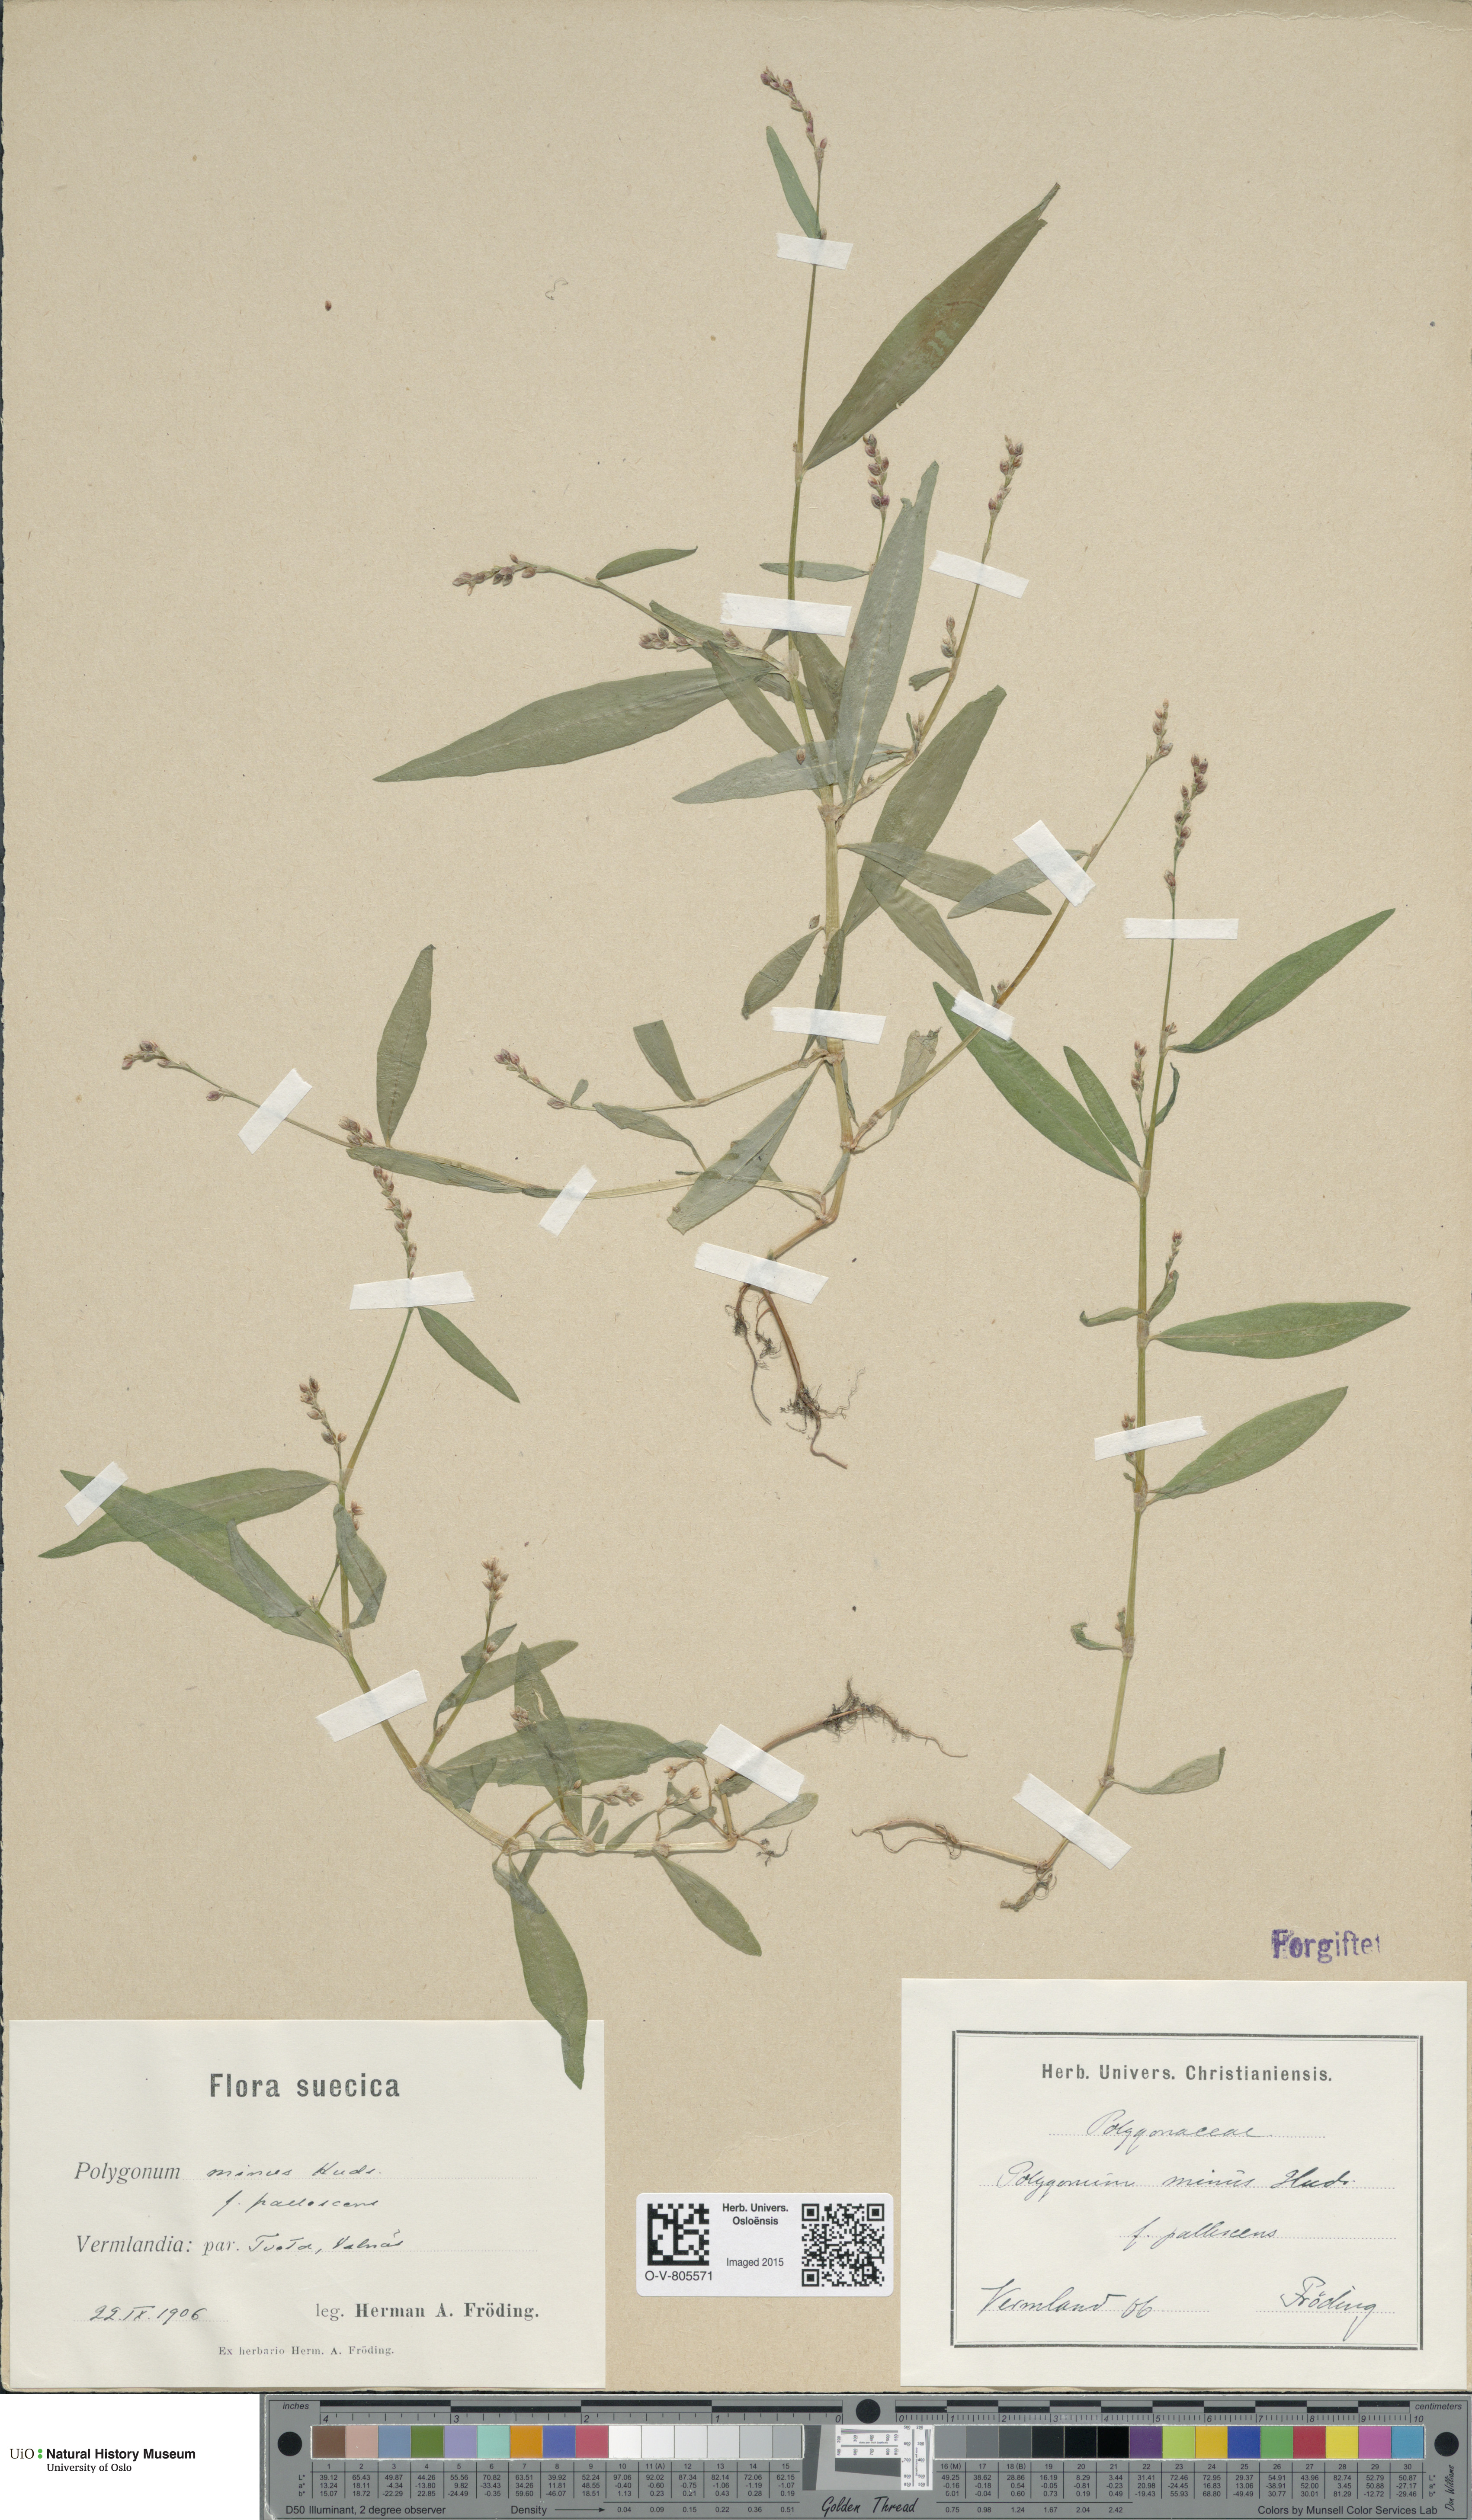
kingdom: Plantae
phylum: Tracheophyta
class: Magnoliopsida
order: Caryophyllales
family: Polygonaceae
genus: Persicaria
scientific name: Persicaria minor
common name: Small water-pepper
